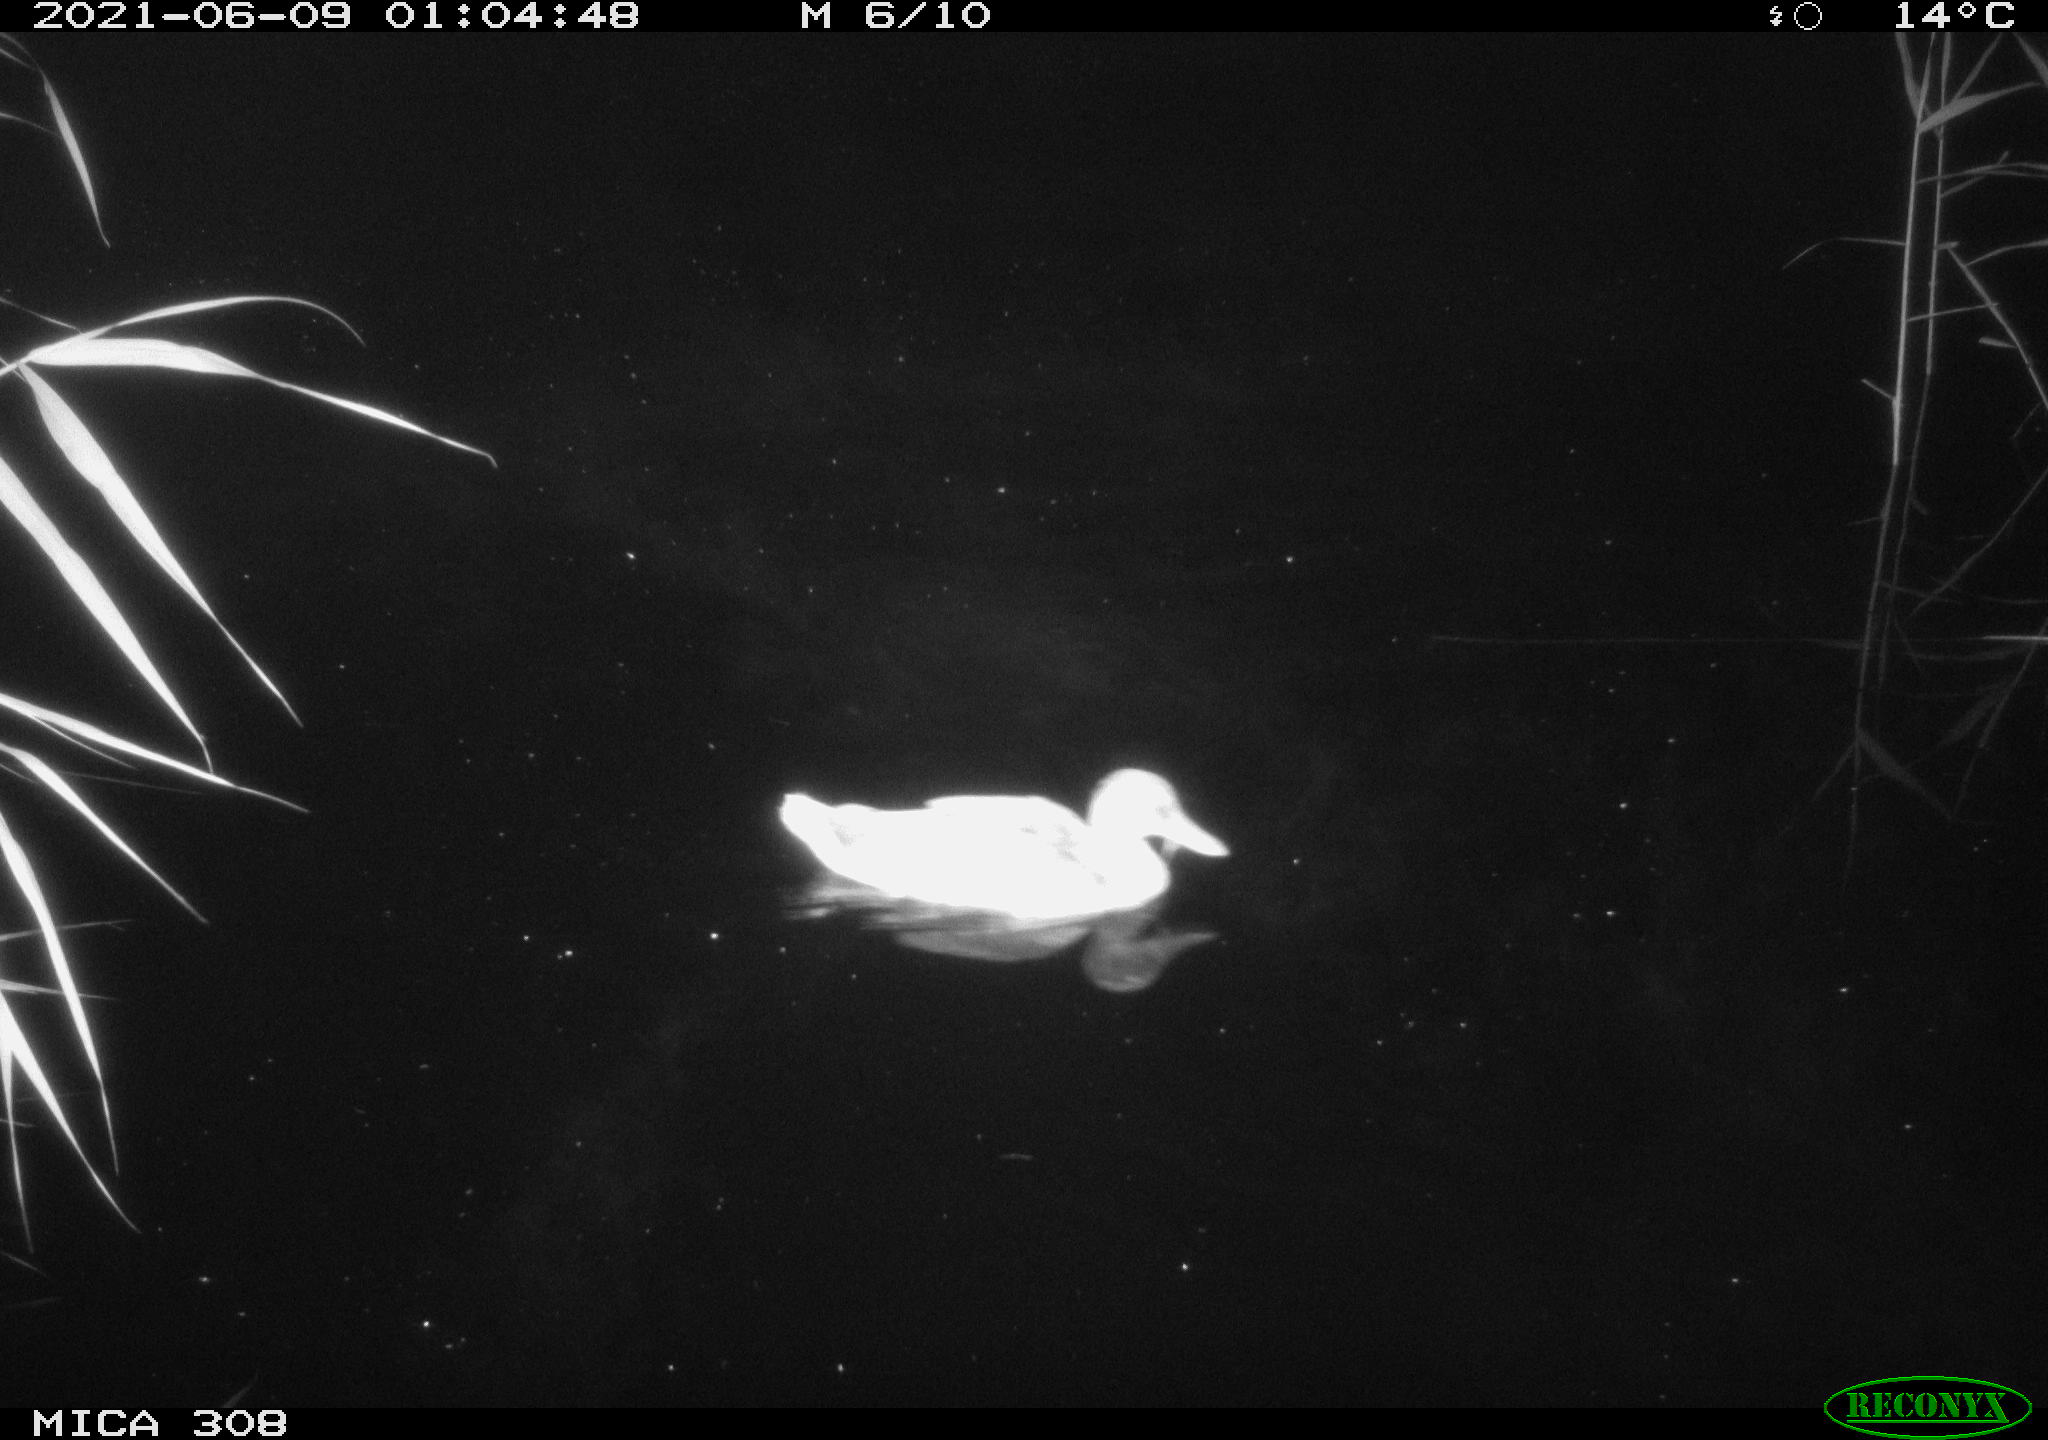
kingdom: Animalia
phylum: Chordata
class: Aves
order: Anseriformes
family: Anatidae
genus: Anas
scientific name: Anas platyrhynchos
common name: Mallard
